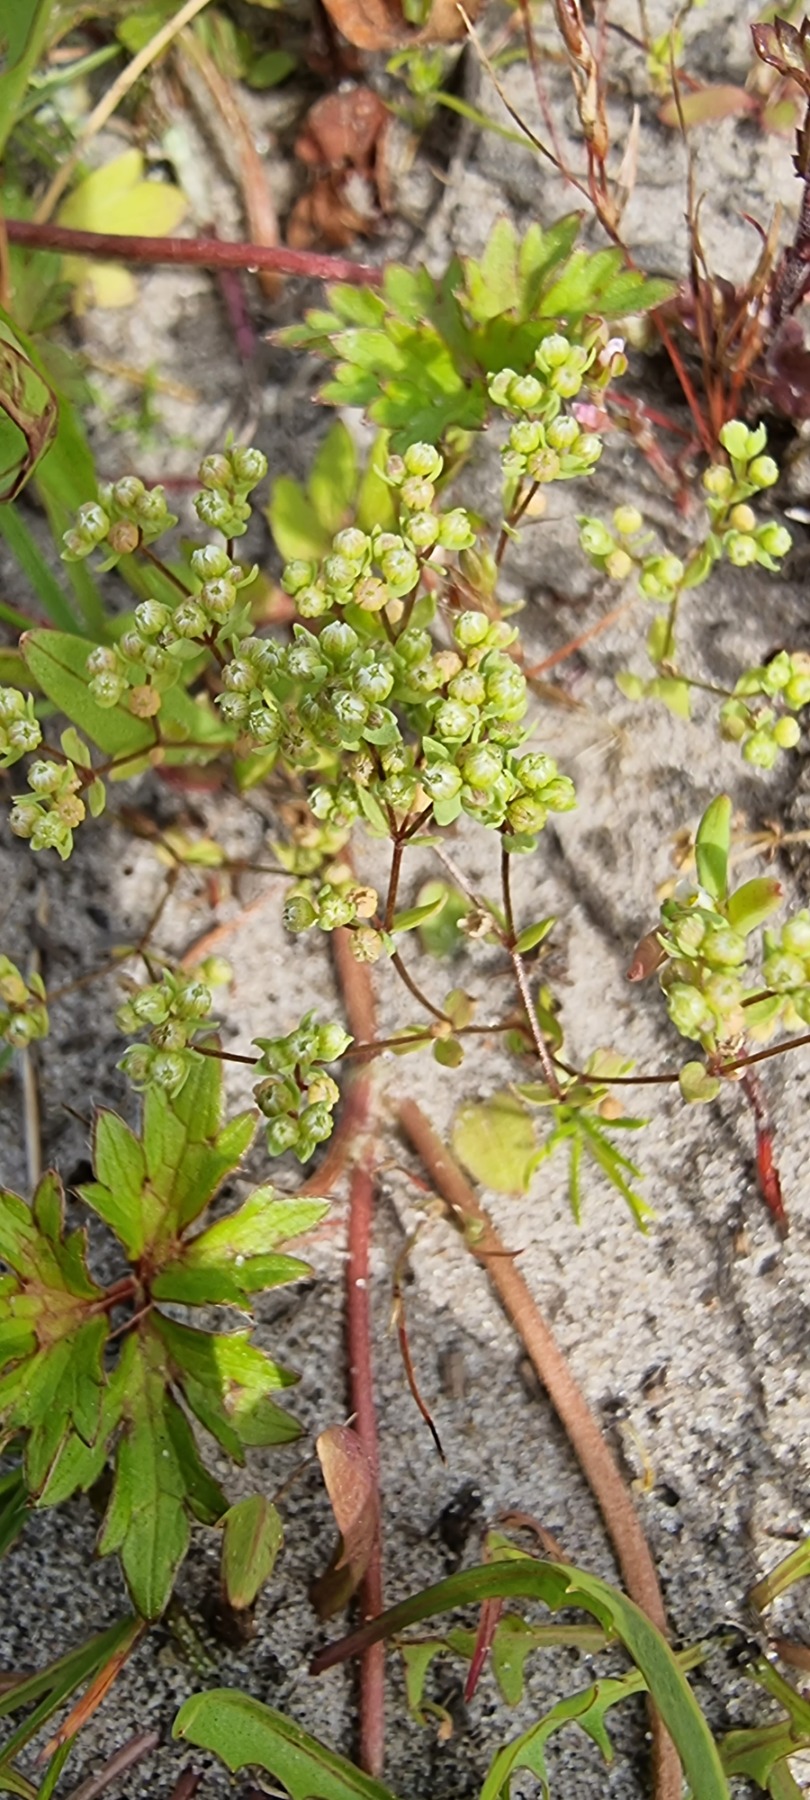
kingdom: Plantae
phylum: Tracheophyta
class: Magnoliopsida
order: Malpighiales
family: Linaceae
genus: Radiola
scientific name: Radiola linoides
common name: Tusindfrø
